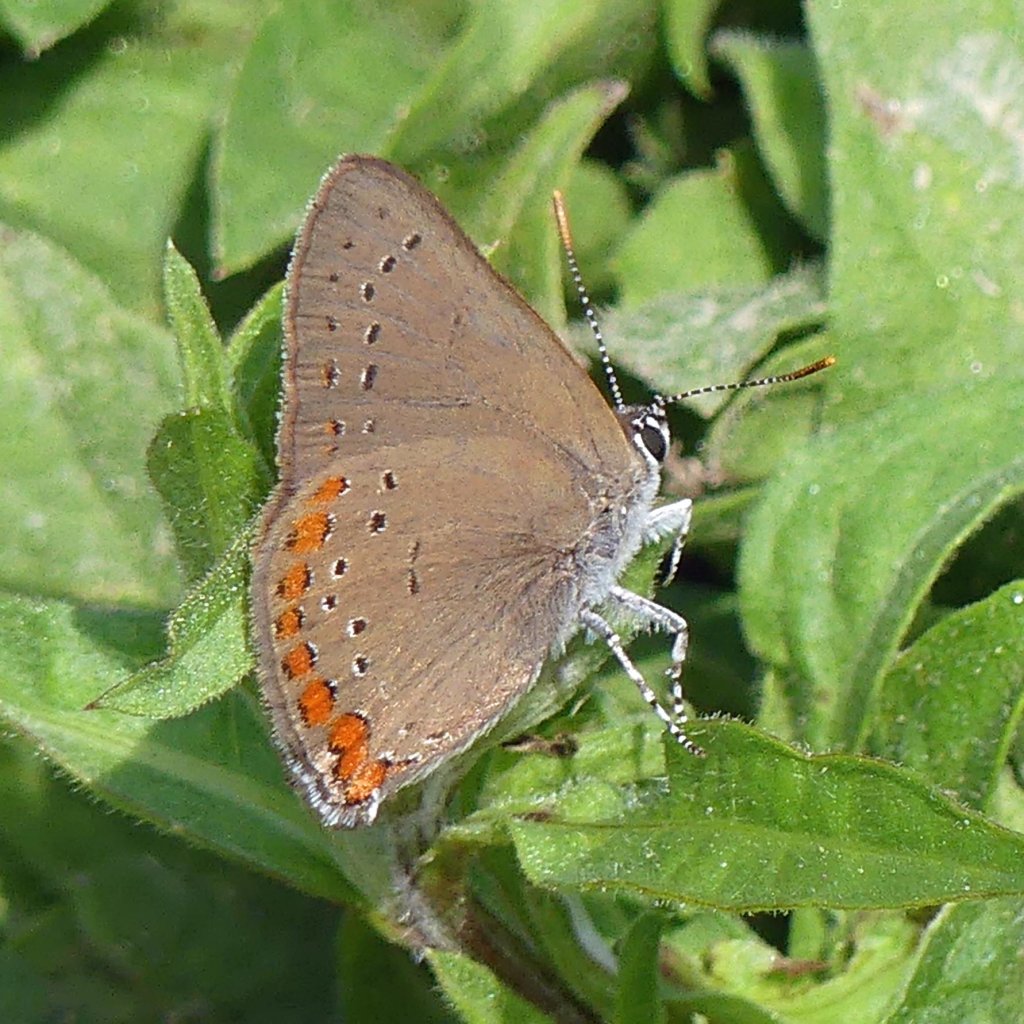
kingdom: Animalia
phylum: Arthropoda
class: Insecta
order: Lepidoptera
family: Lycaenidae
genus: Harkenclenus
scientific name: Harkenclenus titus
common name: Coral Hairstreak
